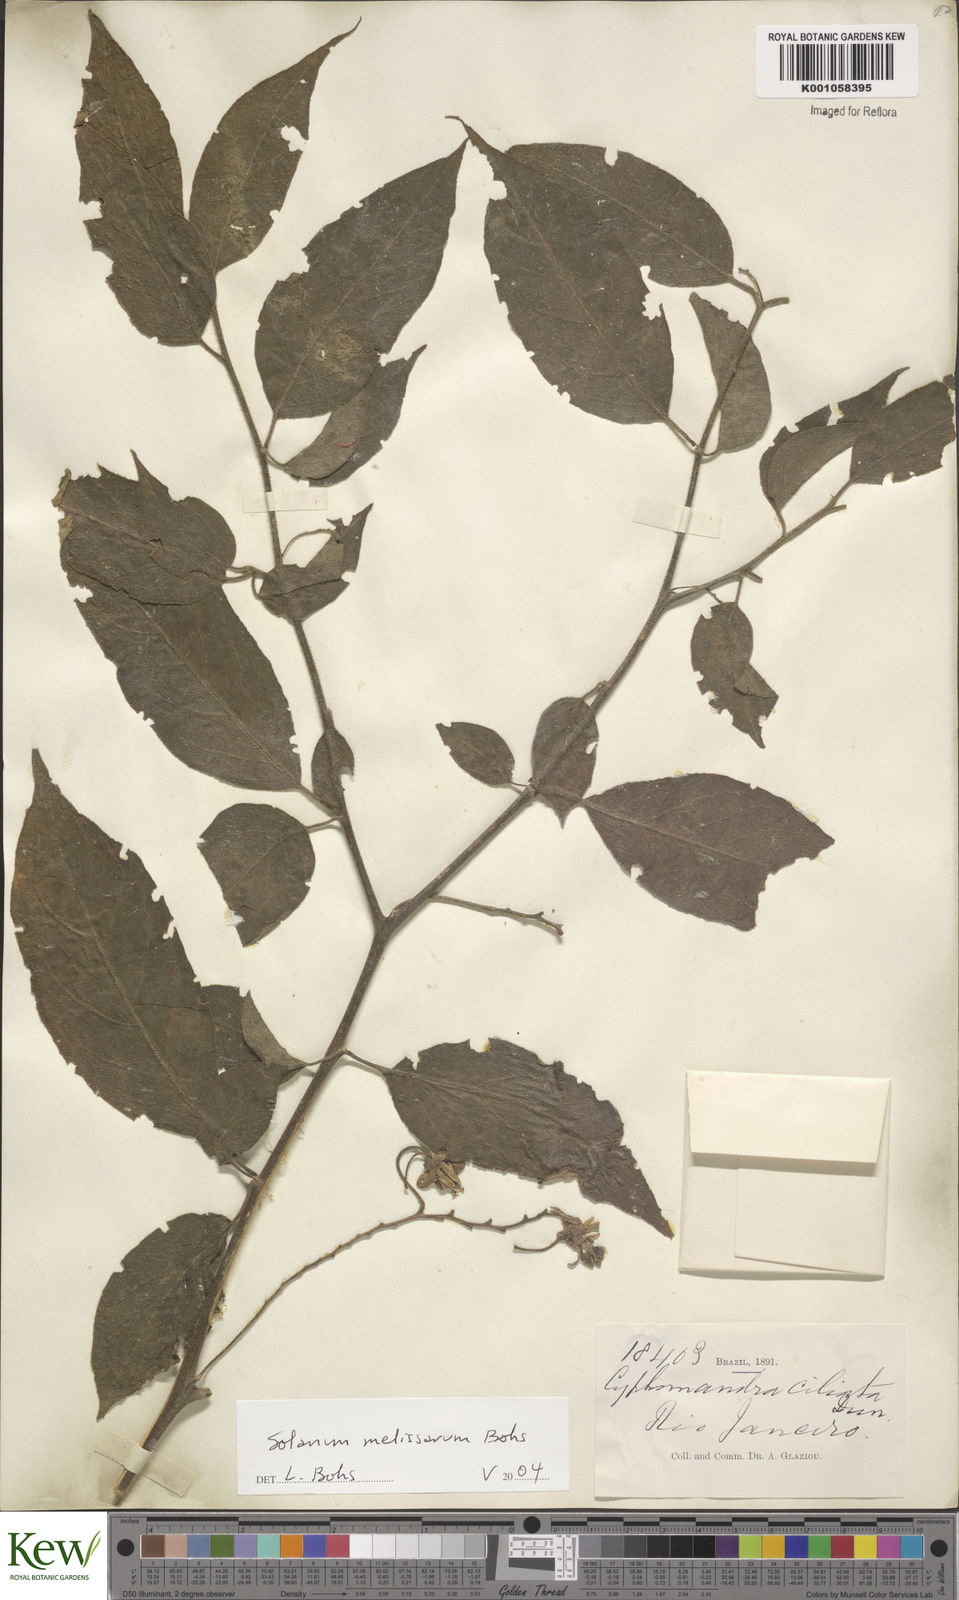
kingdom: Plantae
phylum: Tracheophyta
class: Magnoliopsida
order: Solanales
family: Solanaceae
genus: Solanum
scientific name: Solanum melissarum
